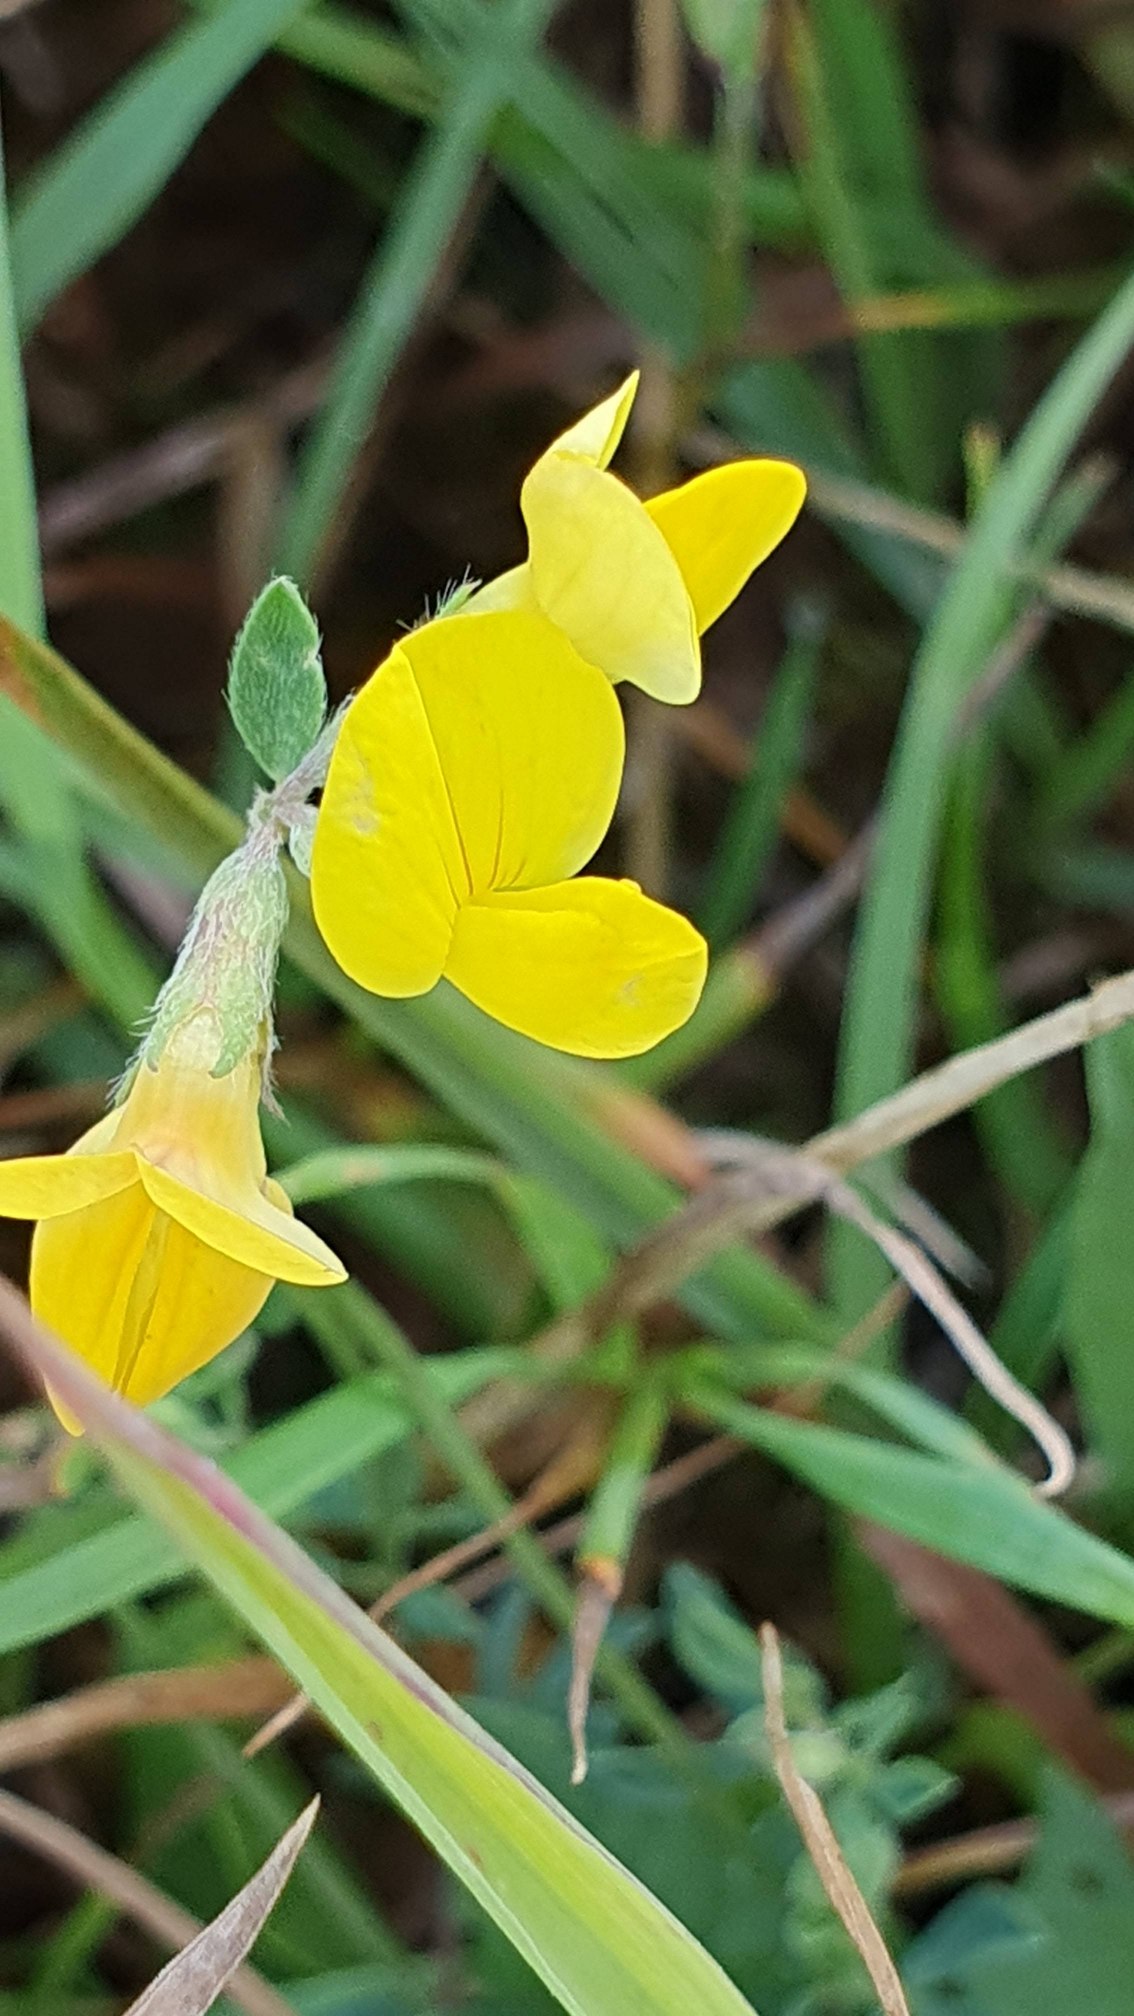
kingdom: Plantae
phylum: Tracheophyta
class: Magnoliopsida
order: Fabales
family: Fabaceae
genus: Lotus
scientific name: Lotus corniculatus
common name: Almindelig kællingetand
